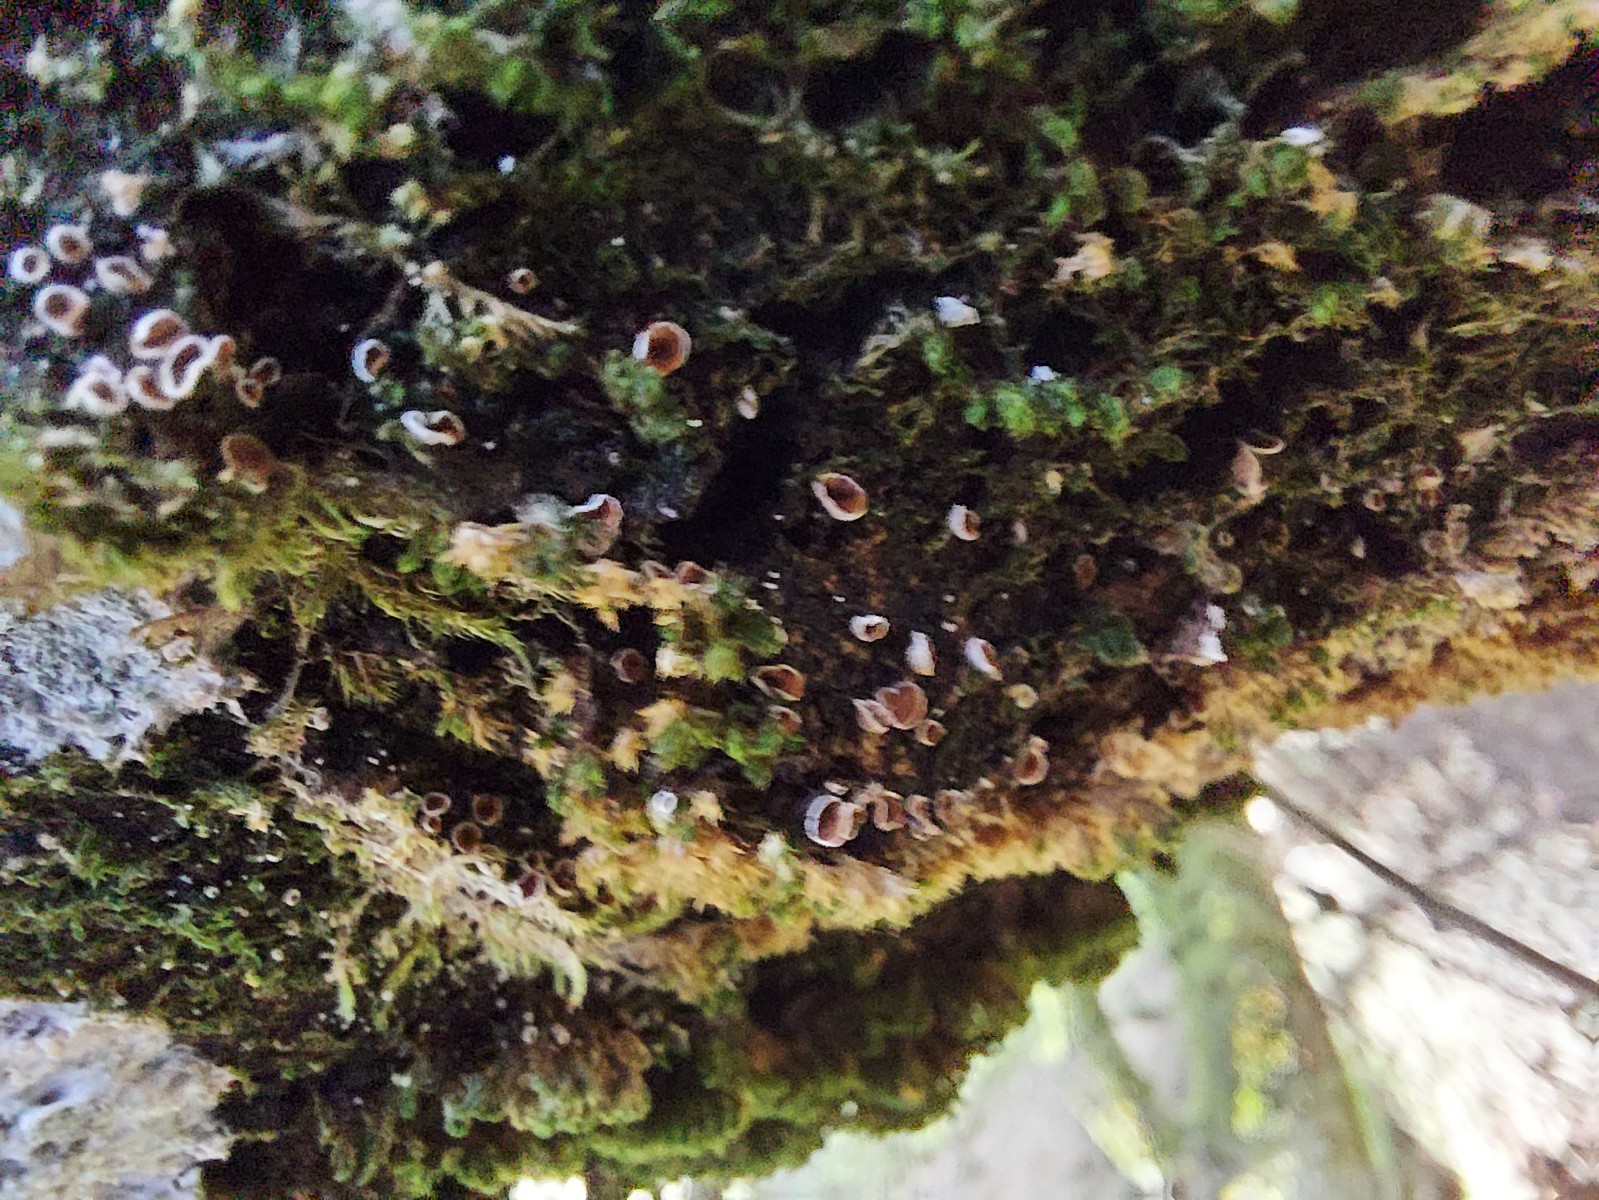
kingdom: Fungi
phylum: Basidiomycota
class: Agaricomycetes
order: Agaricales
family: Chromocyphellaceae
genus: Chromocyphella
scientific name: Chromocyphella muscicola
